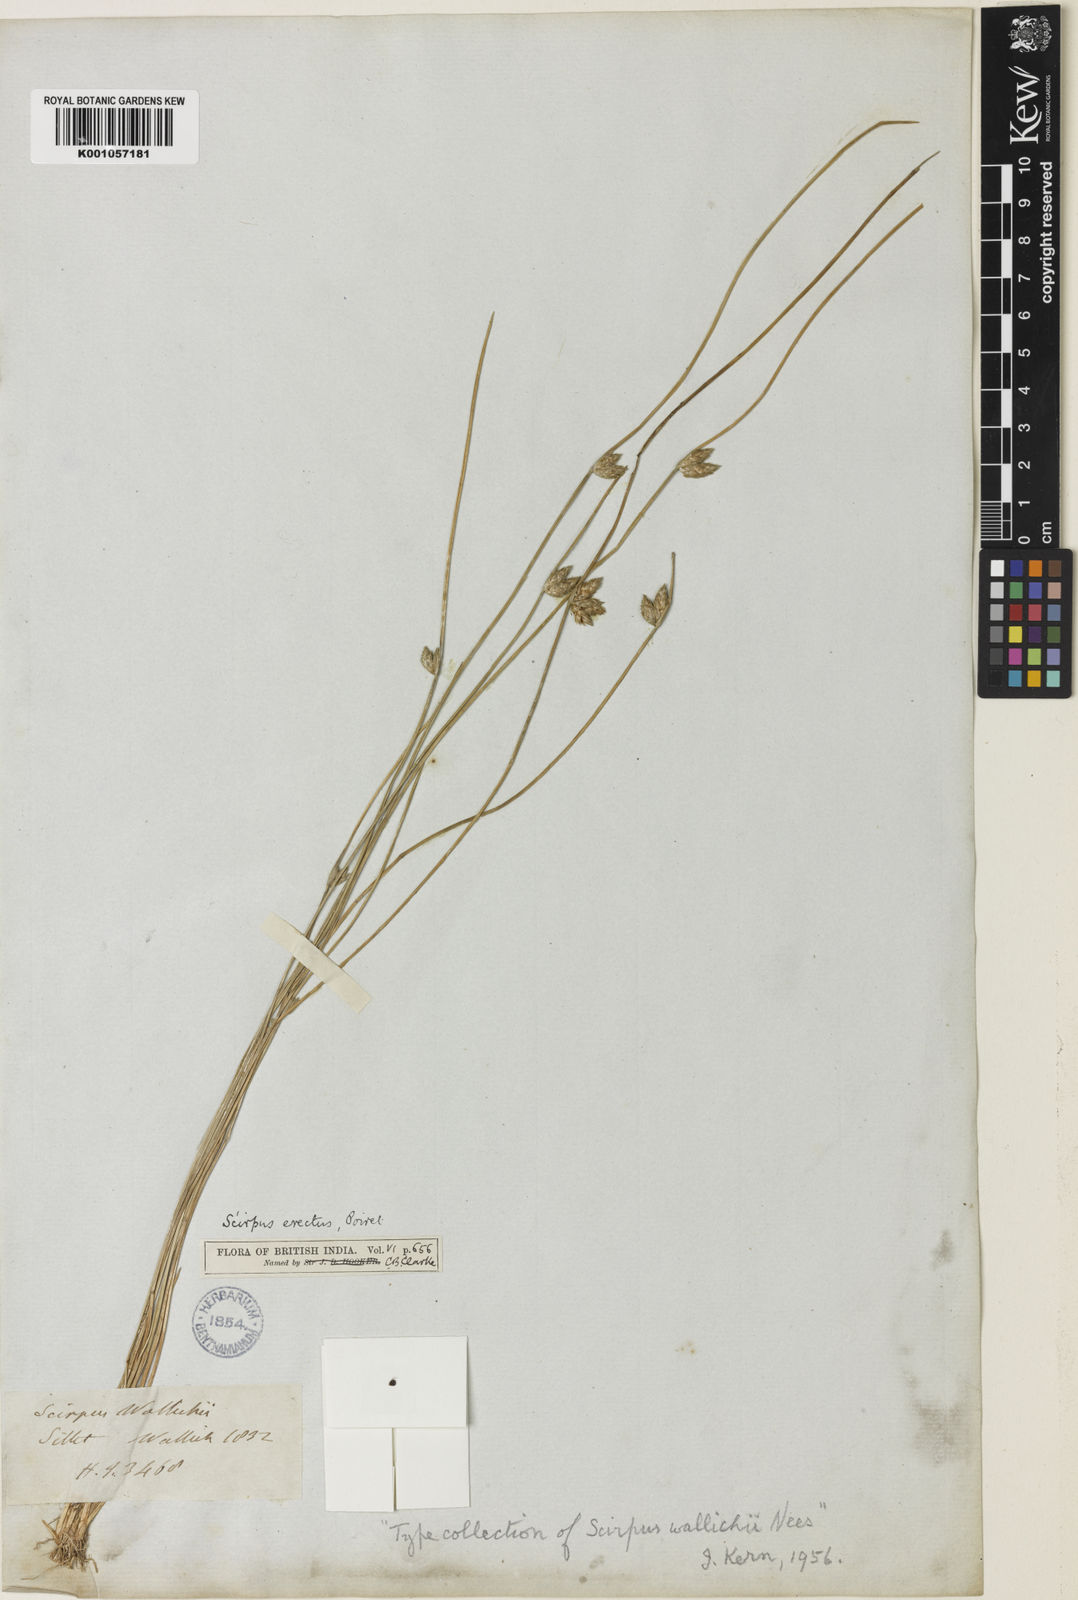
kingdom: Plantae
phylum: Tracheophyta
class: Liliopsida
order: Poales
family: Cyperaceae
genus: Schoenoplectiella
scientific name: Schoenoplectiella wallichii
